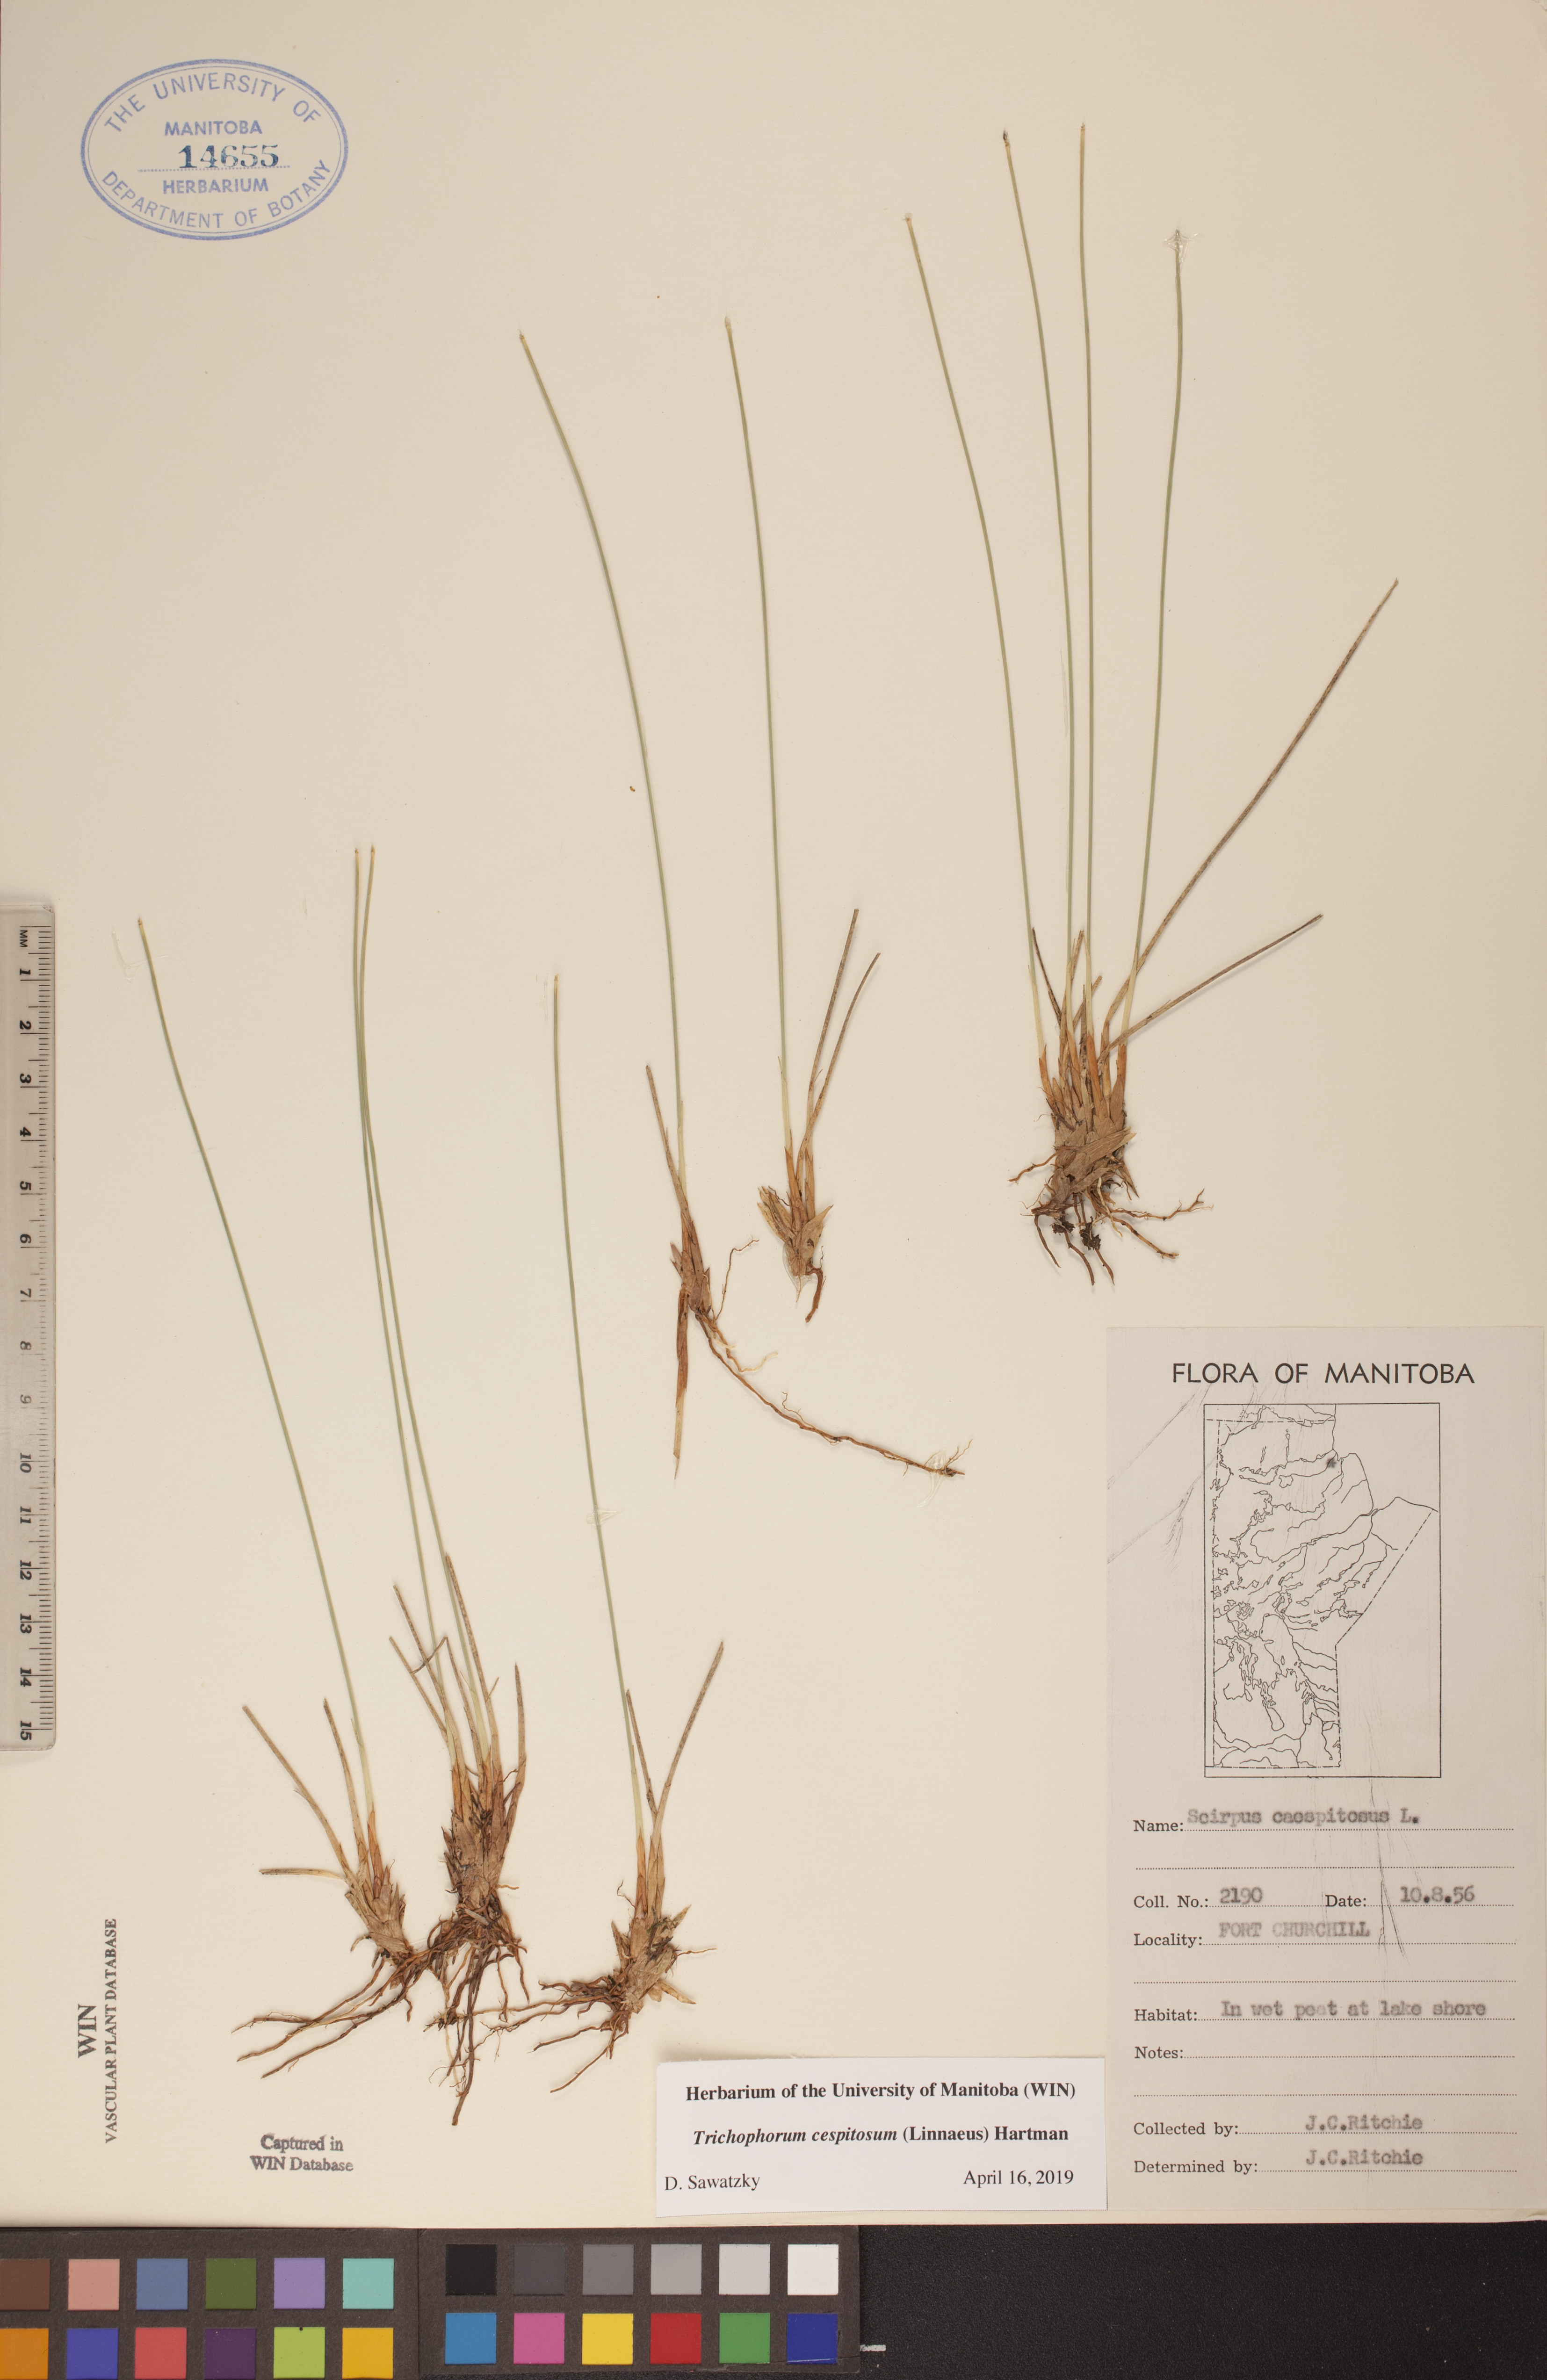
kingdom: Plantae
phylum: Tracheophyta
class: Liliopsida
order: Poales
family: Cyperaceae
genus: Trichophorum
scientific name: Trichophorum cespitosum
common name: Cespitose bulrush
